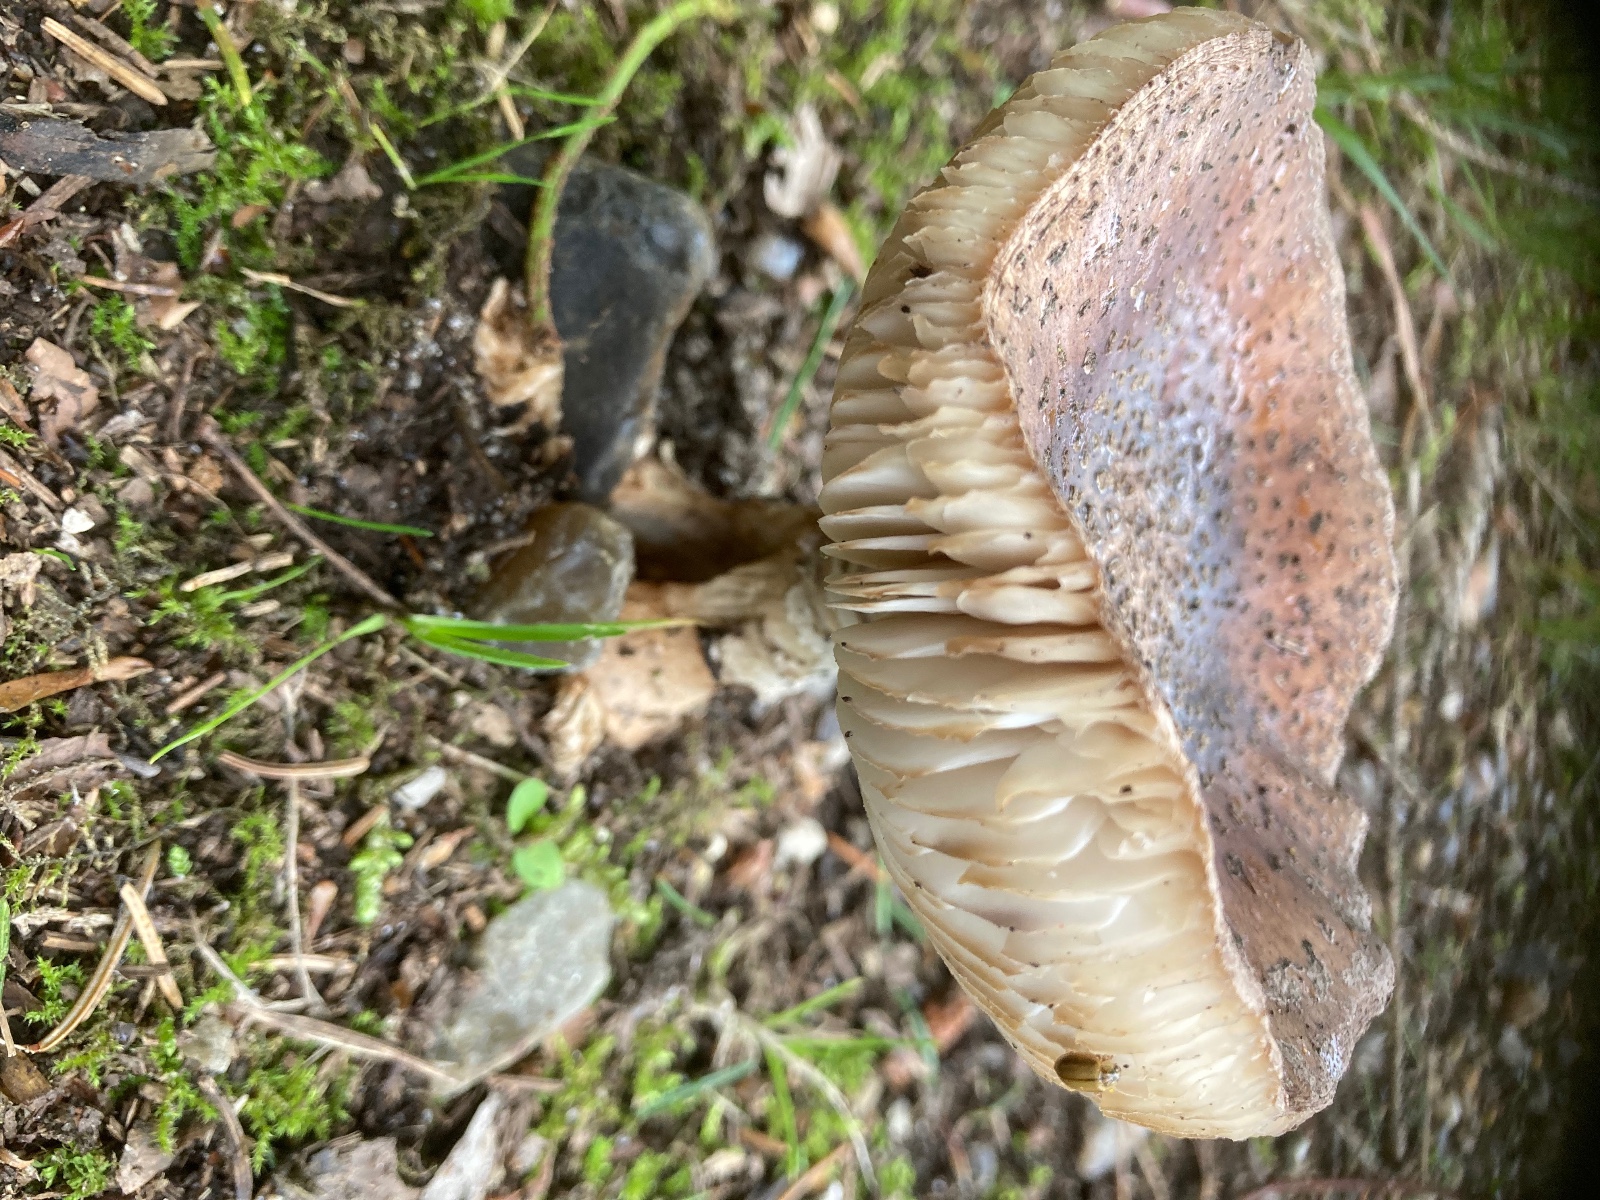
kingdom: Fungi
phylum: Basidiomycota
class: Agaricomycetes
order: Agaricales
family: Amanitaceae
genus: Amanita
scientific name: Amanita rubescens
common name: rødmende fluesvamp
